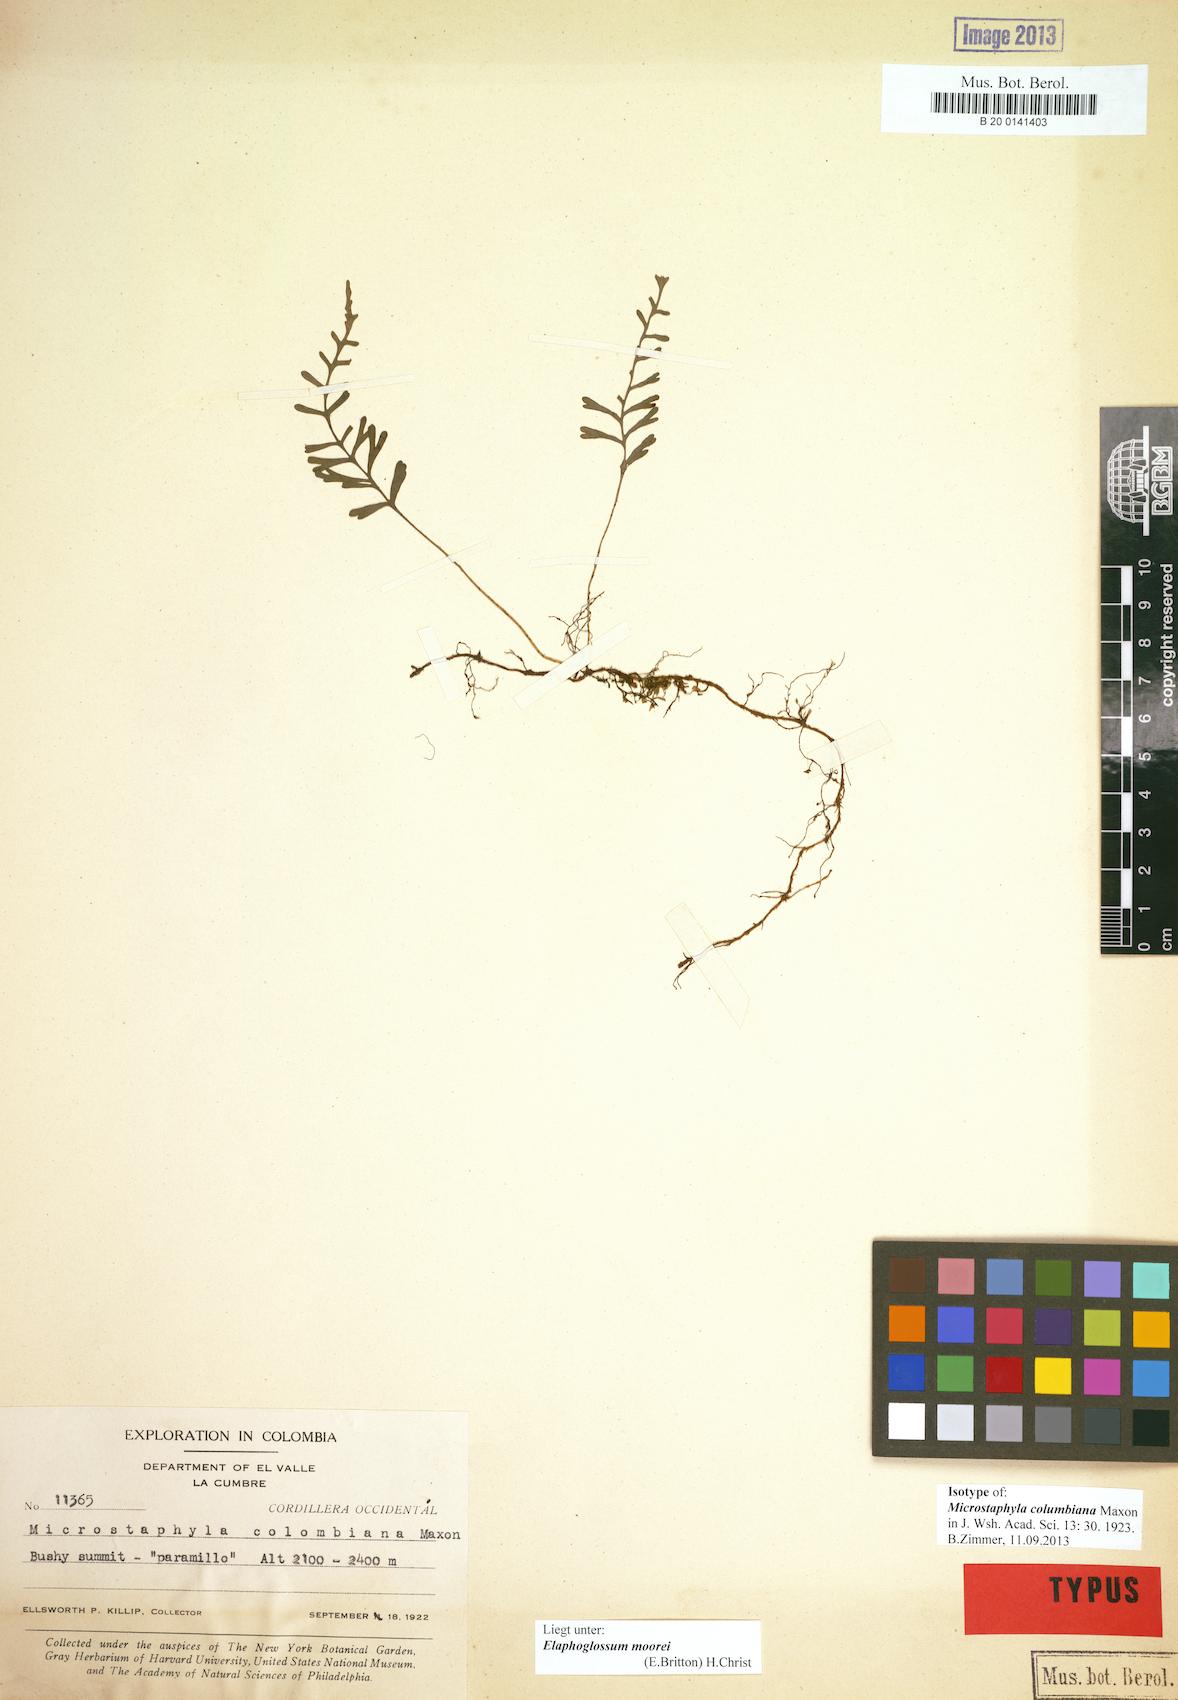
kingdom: Plantae
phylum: Tracheophyta
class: Polypodiopsida
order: Polypodiales
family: Dryopteridaceae
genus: Elaphoglossum
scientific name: Elaphoglossum moorei
